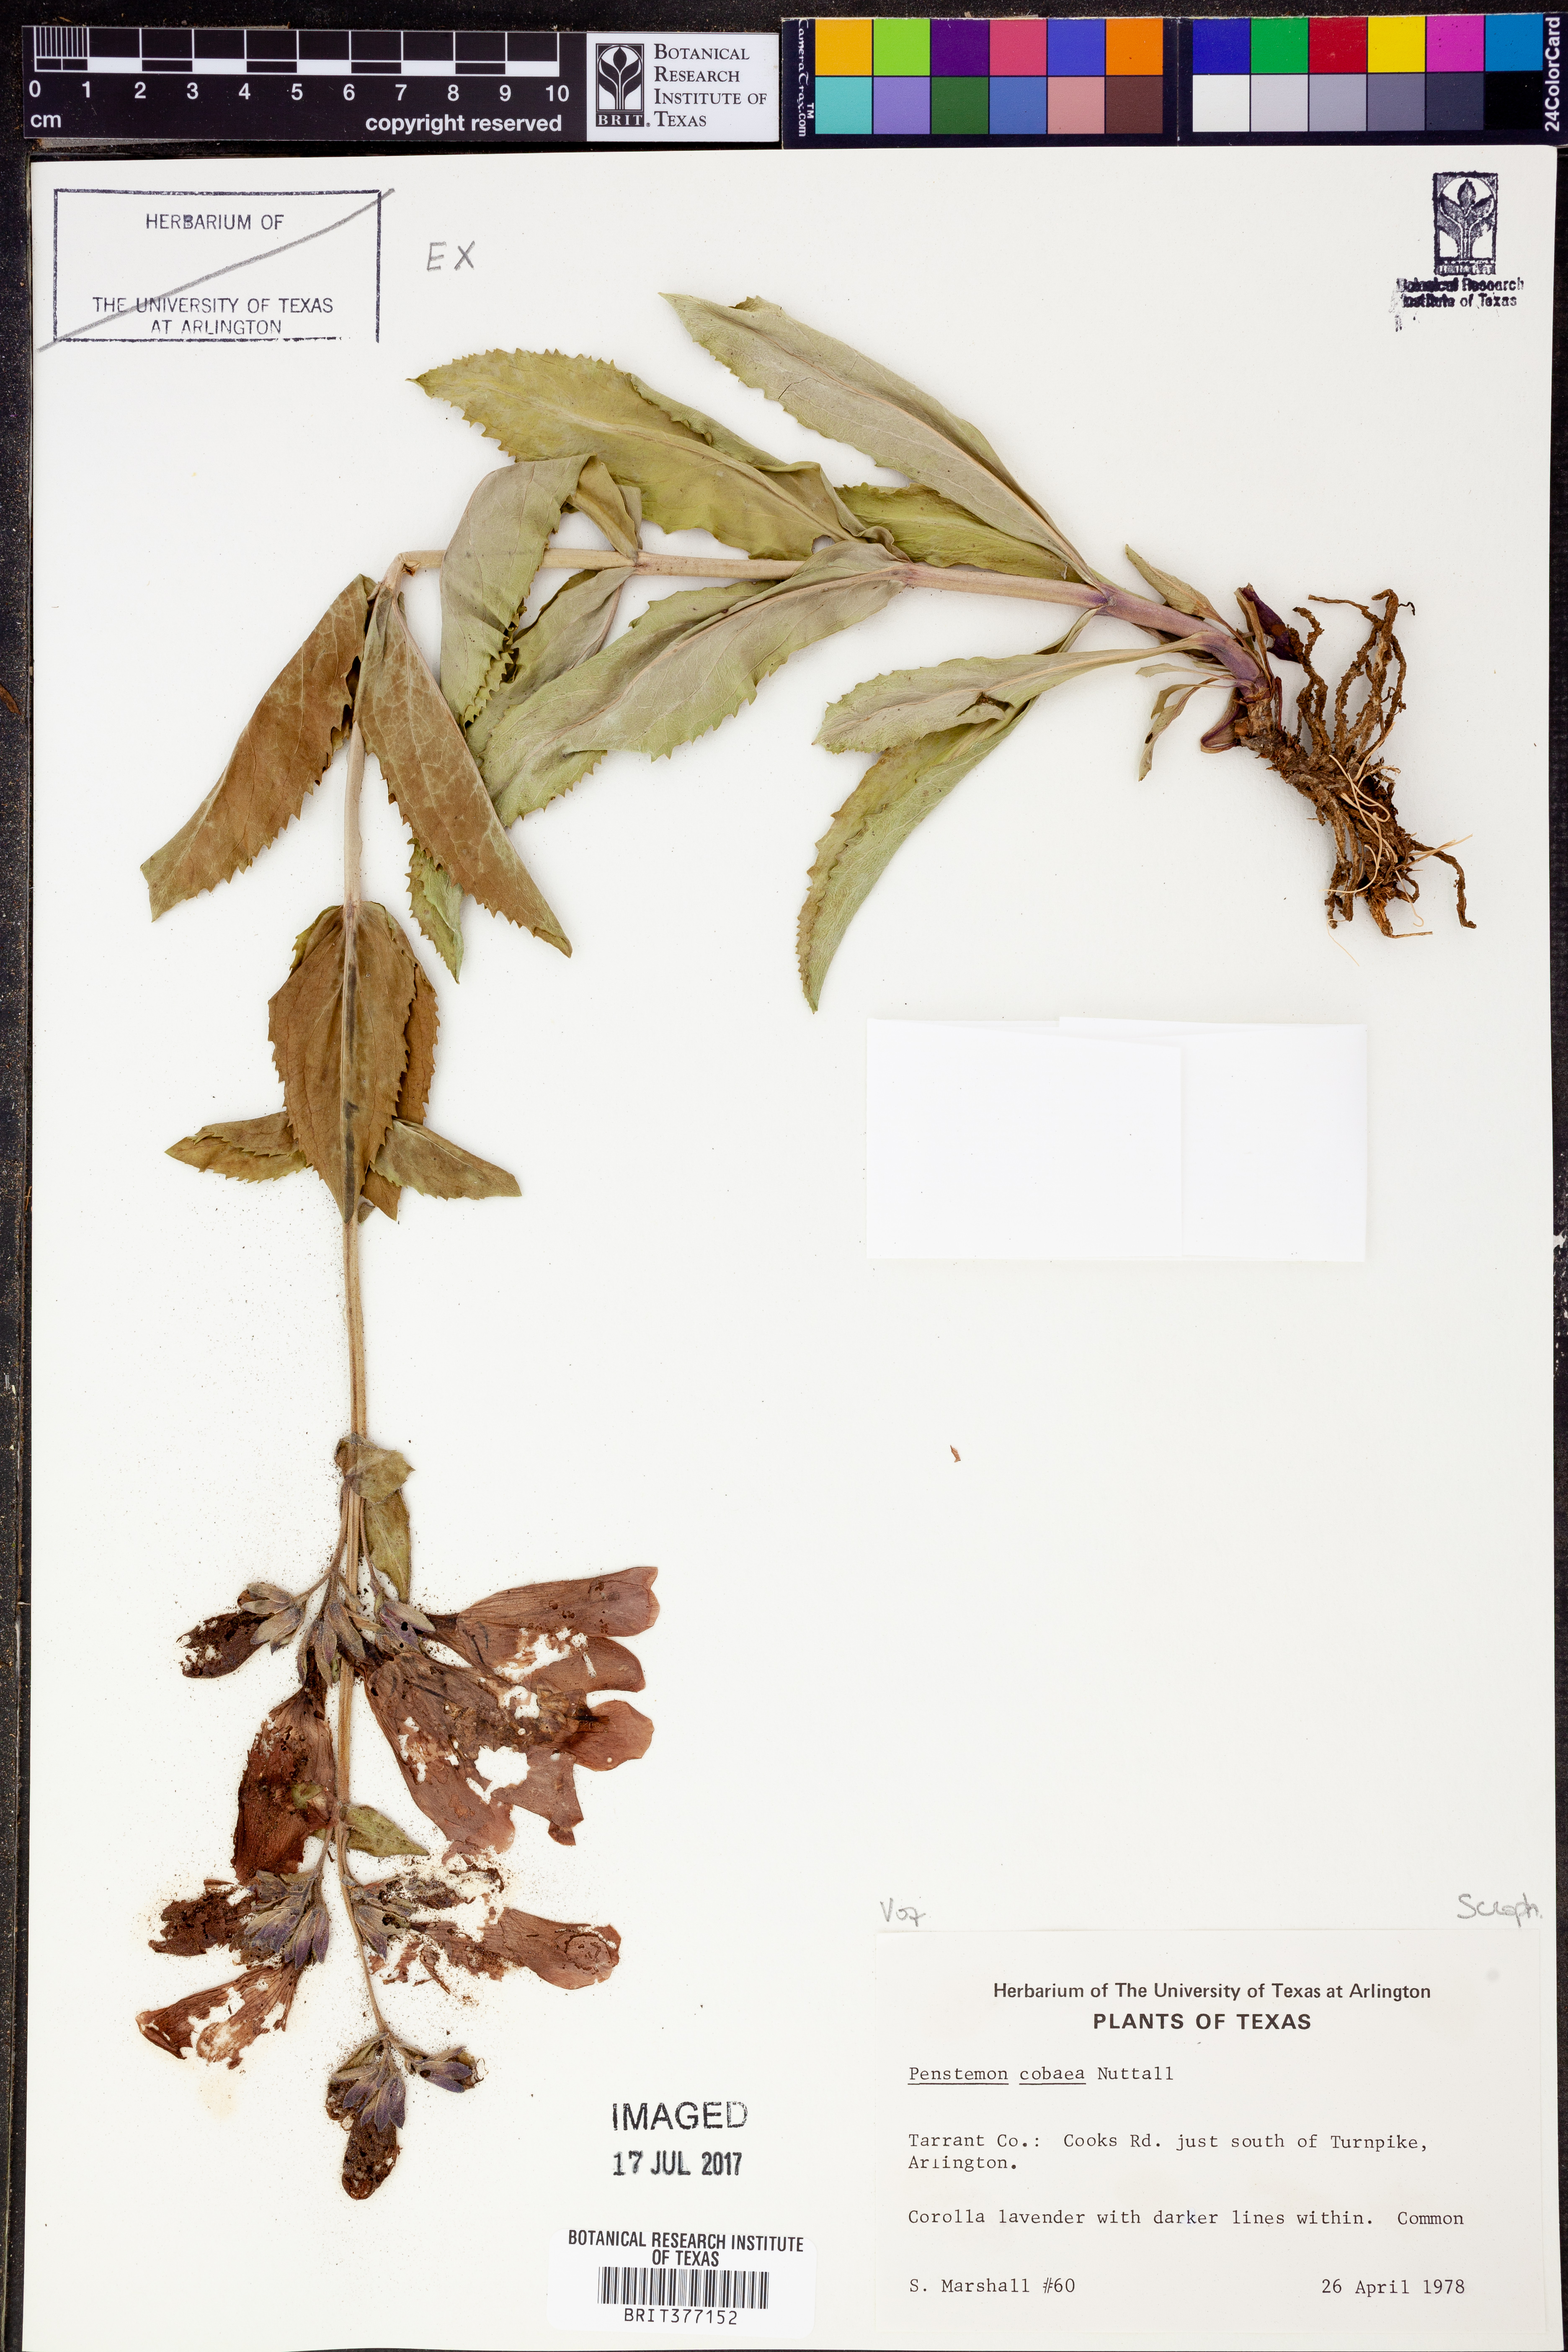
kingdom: Plantae
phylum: Tracheophyta
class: Magnoliopsida
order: Lamiales
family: Plantaginaceae
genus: Penstemon
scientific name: Penstemon cobaea
